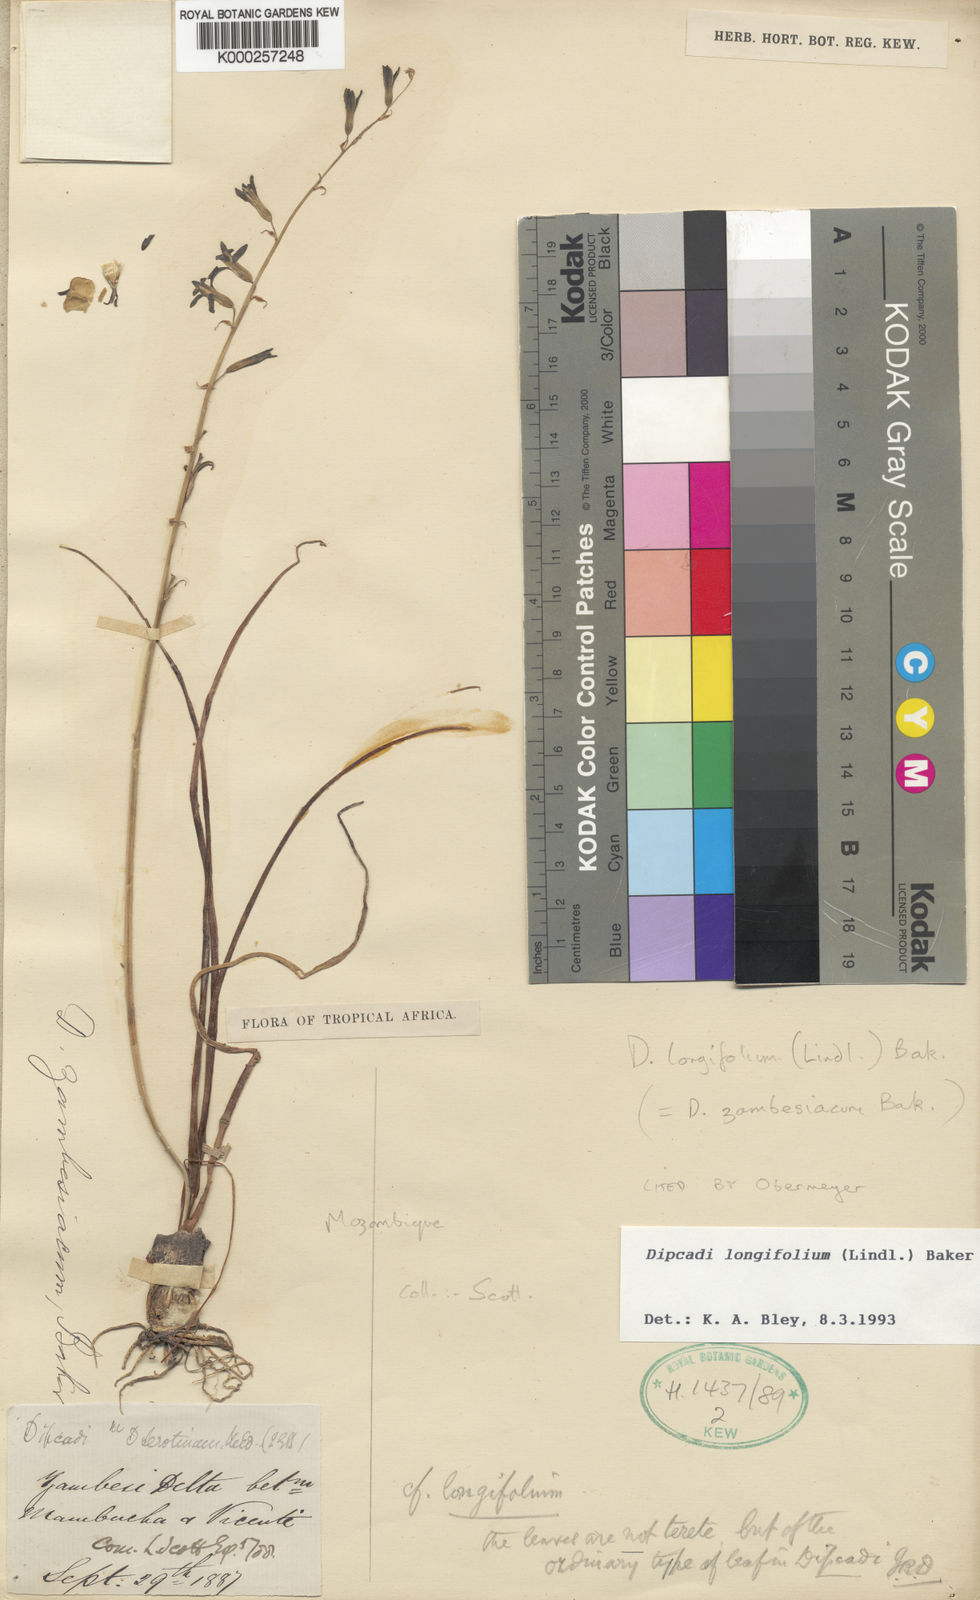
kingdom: Plantae
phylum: Tracheophyta
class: Liliopsida
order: Asparagales
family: Asparagaceae
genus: Dipcadi
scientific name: Dipcadi longifolium
